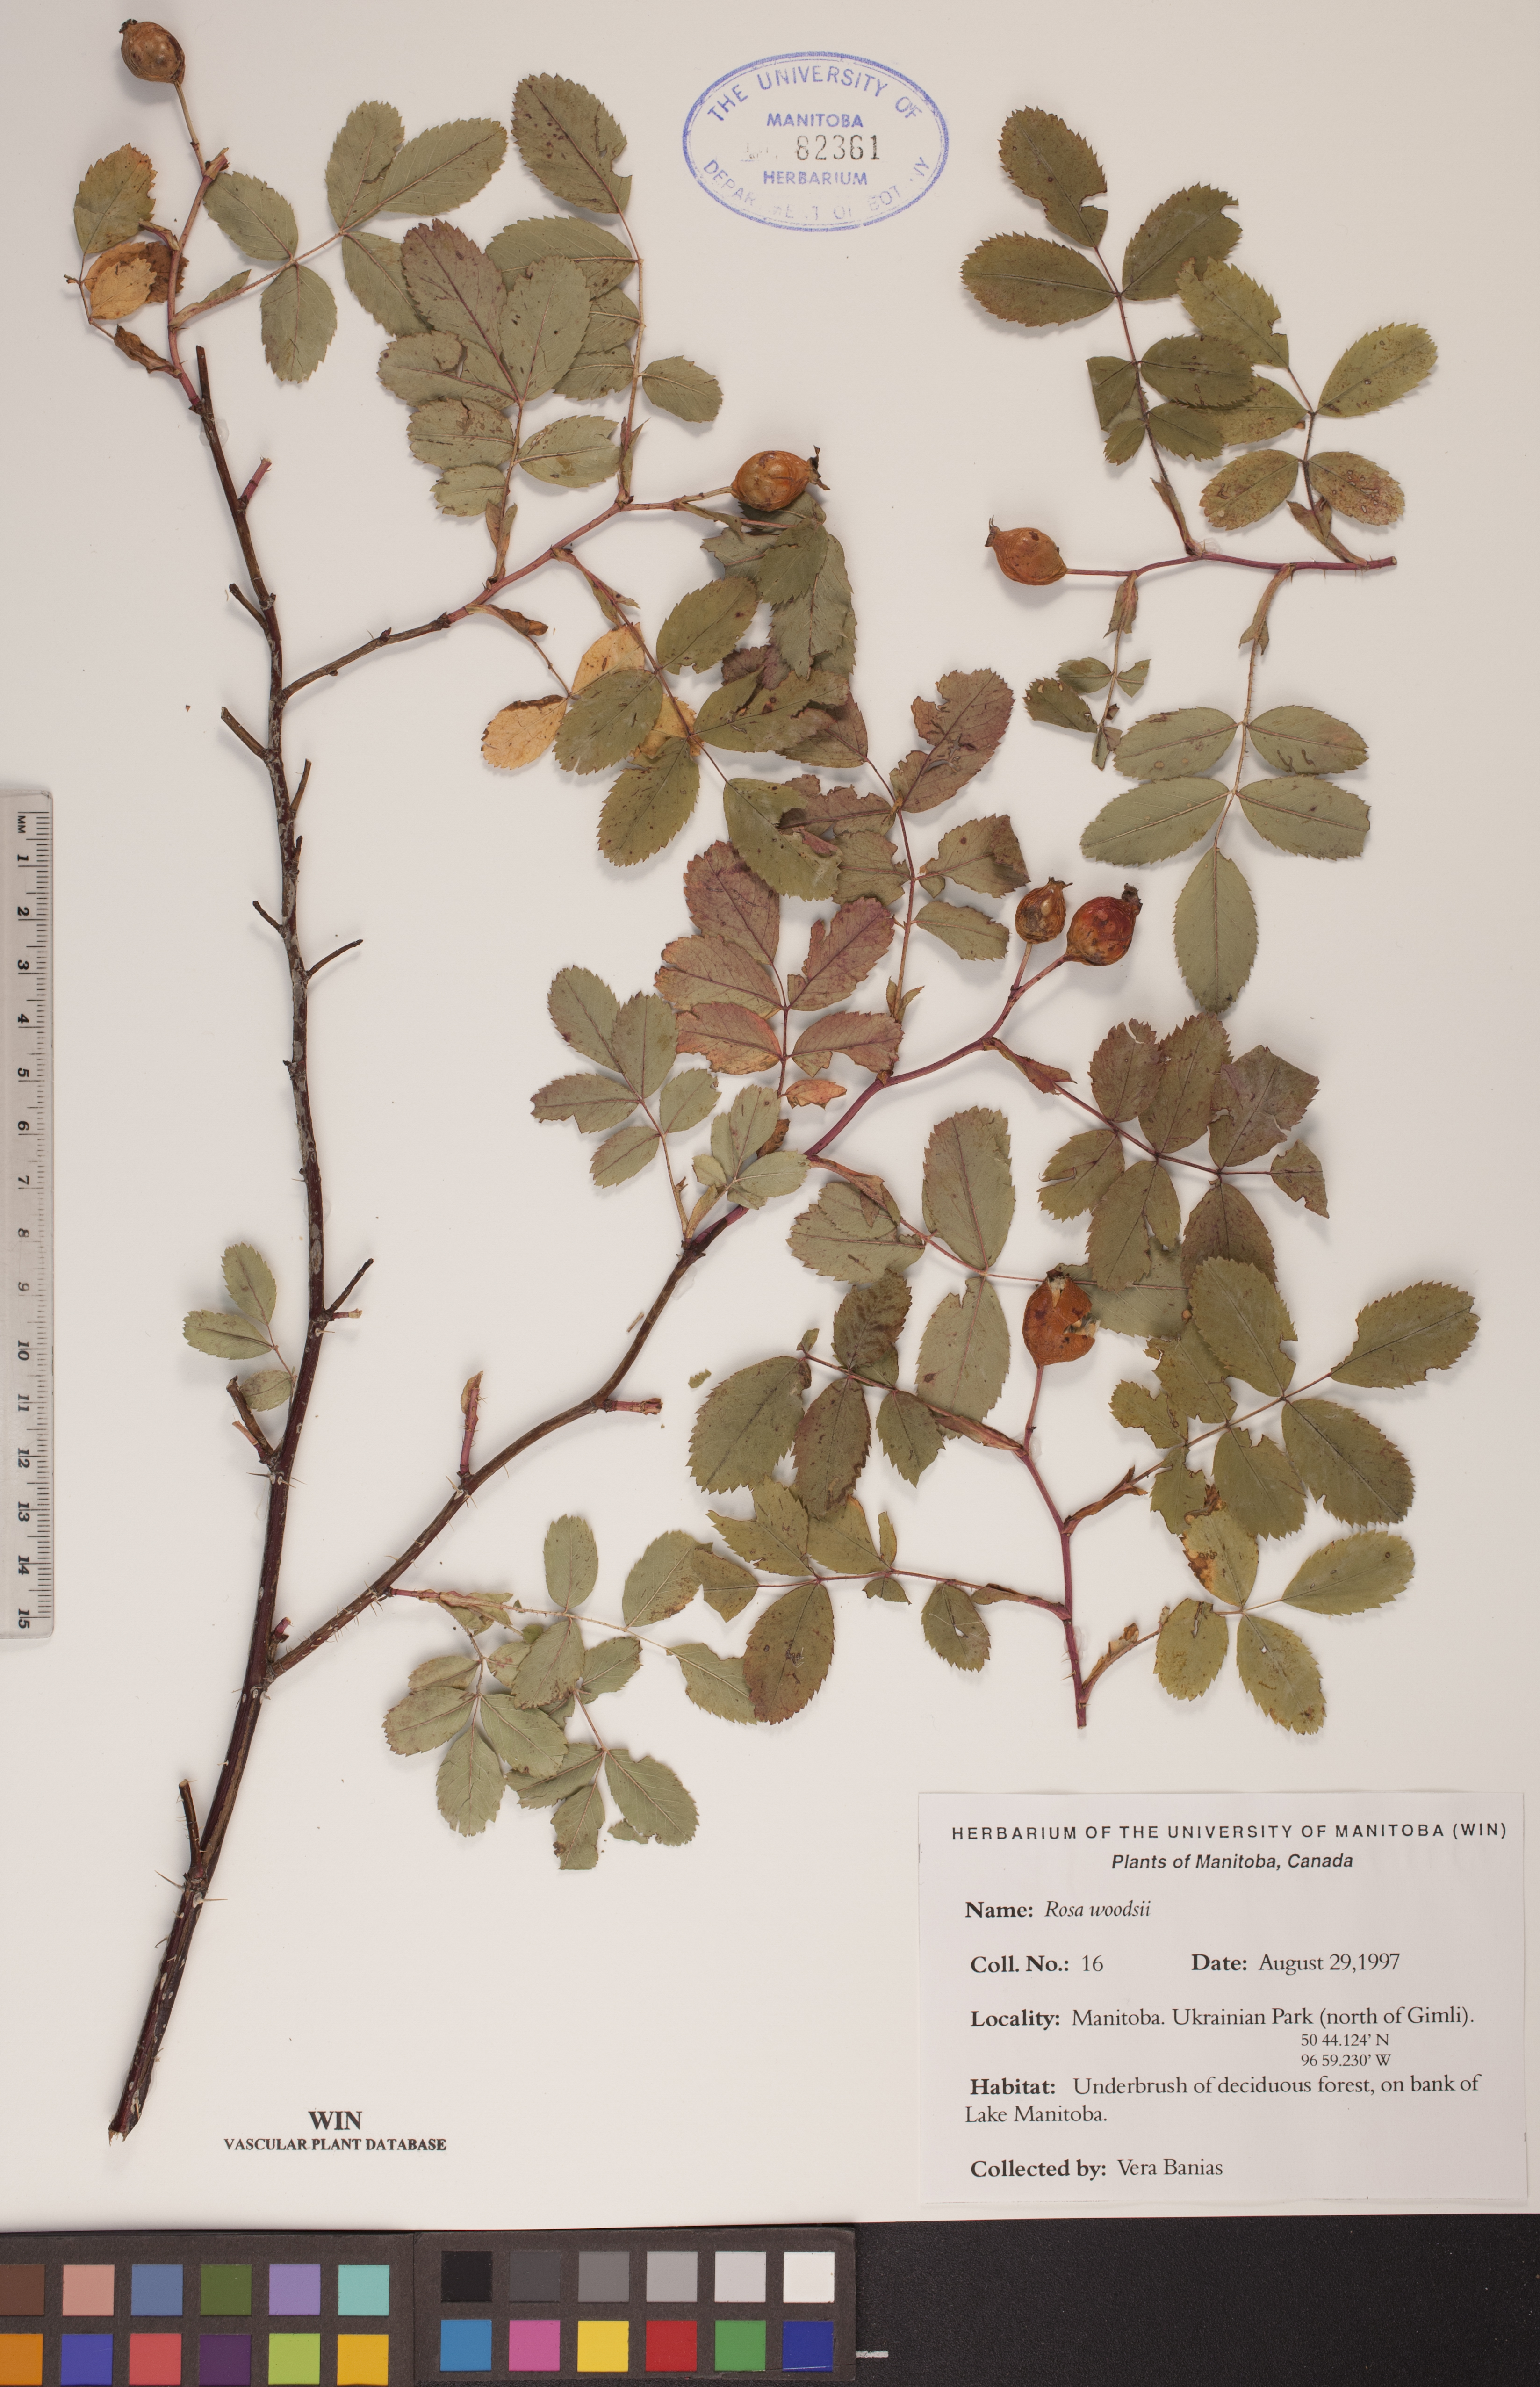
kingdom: Plantae
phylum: Tracheophyta
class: Magnoliopsida
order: Rosales
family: Rosaceae
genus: Rosa
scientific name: Rosa woodsii
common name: Woods's rose
